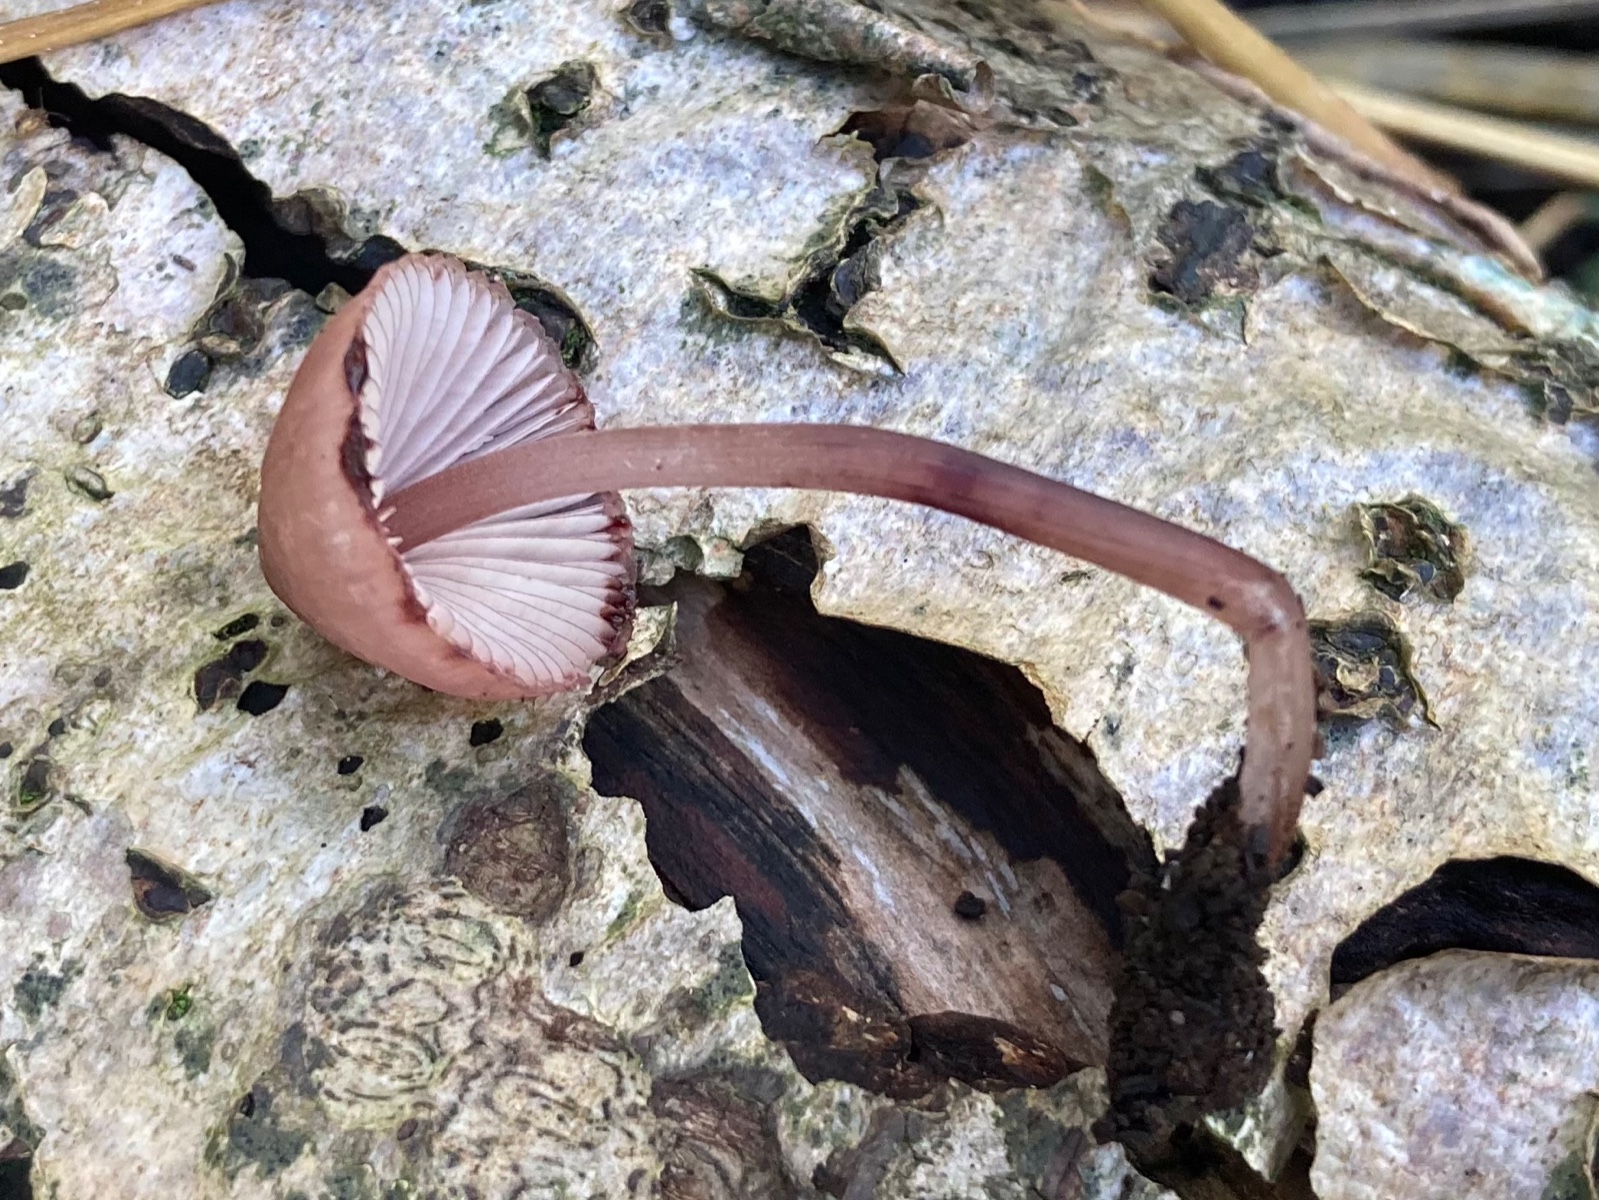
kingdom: Fungi
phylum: Basidiomycota
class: Agaricomycetes
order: Agaricales
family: Mycenaceae
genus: Mycena
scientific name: Mycena haematopus
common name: blødende huesvamp
